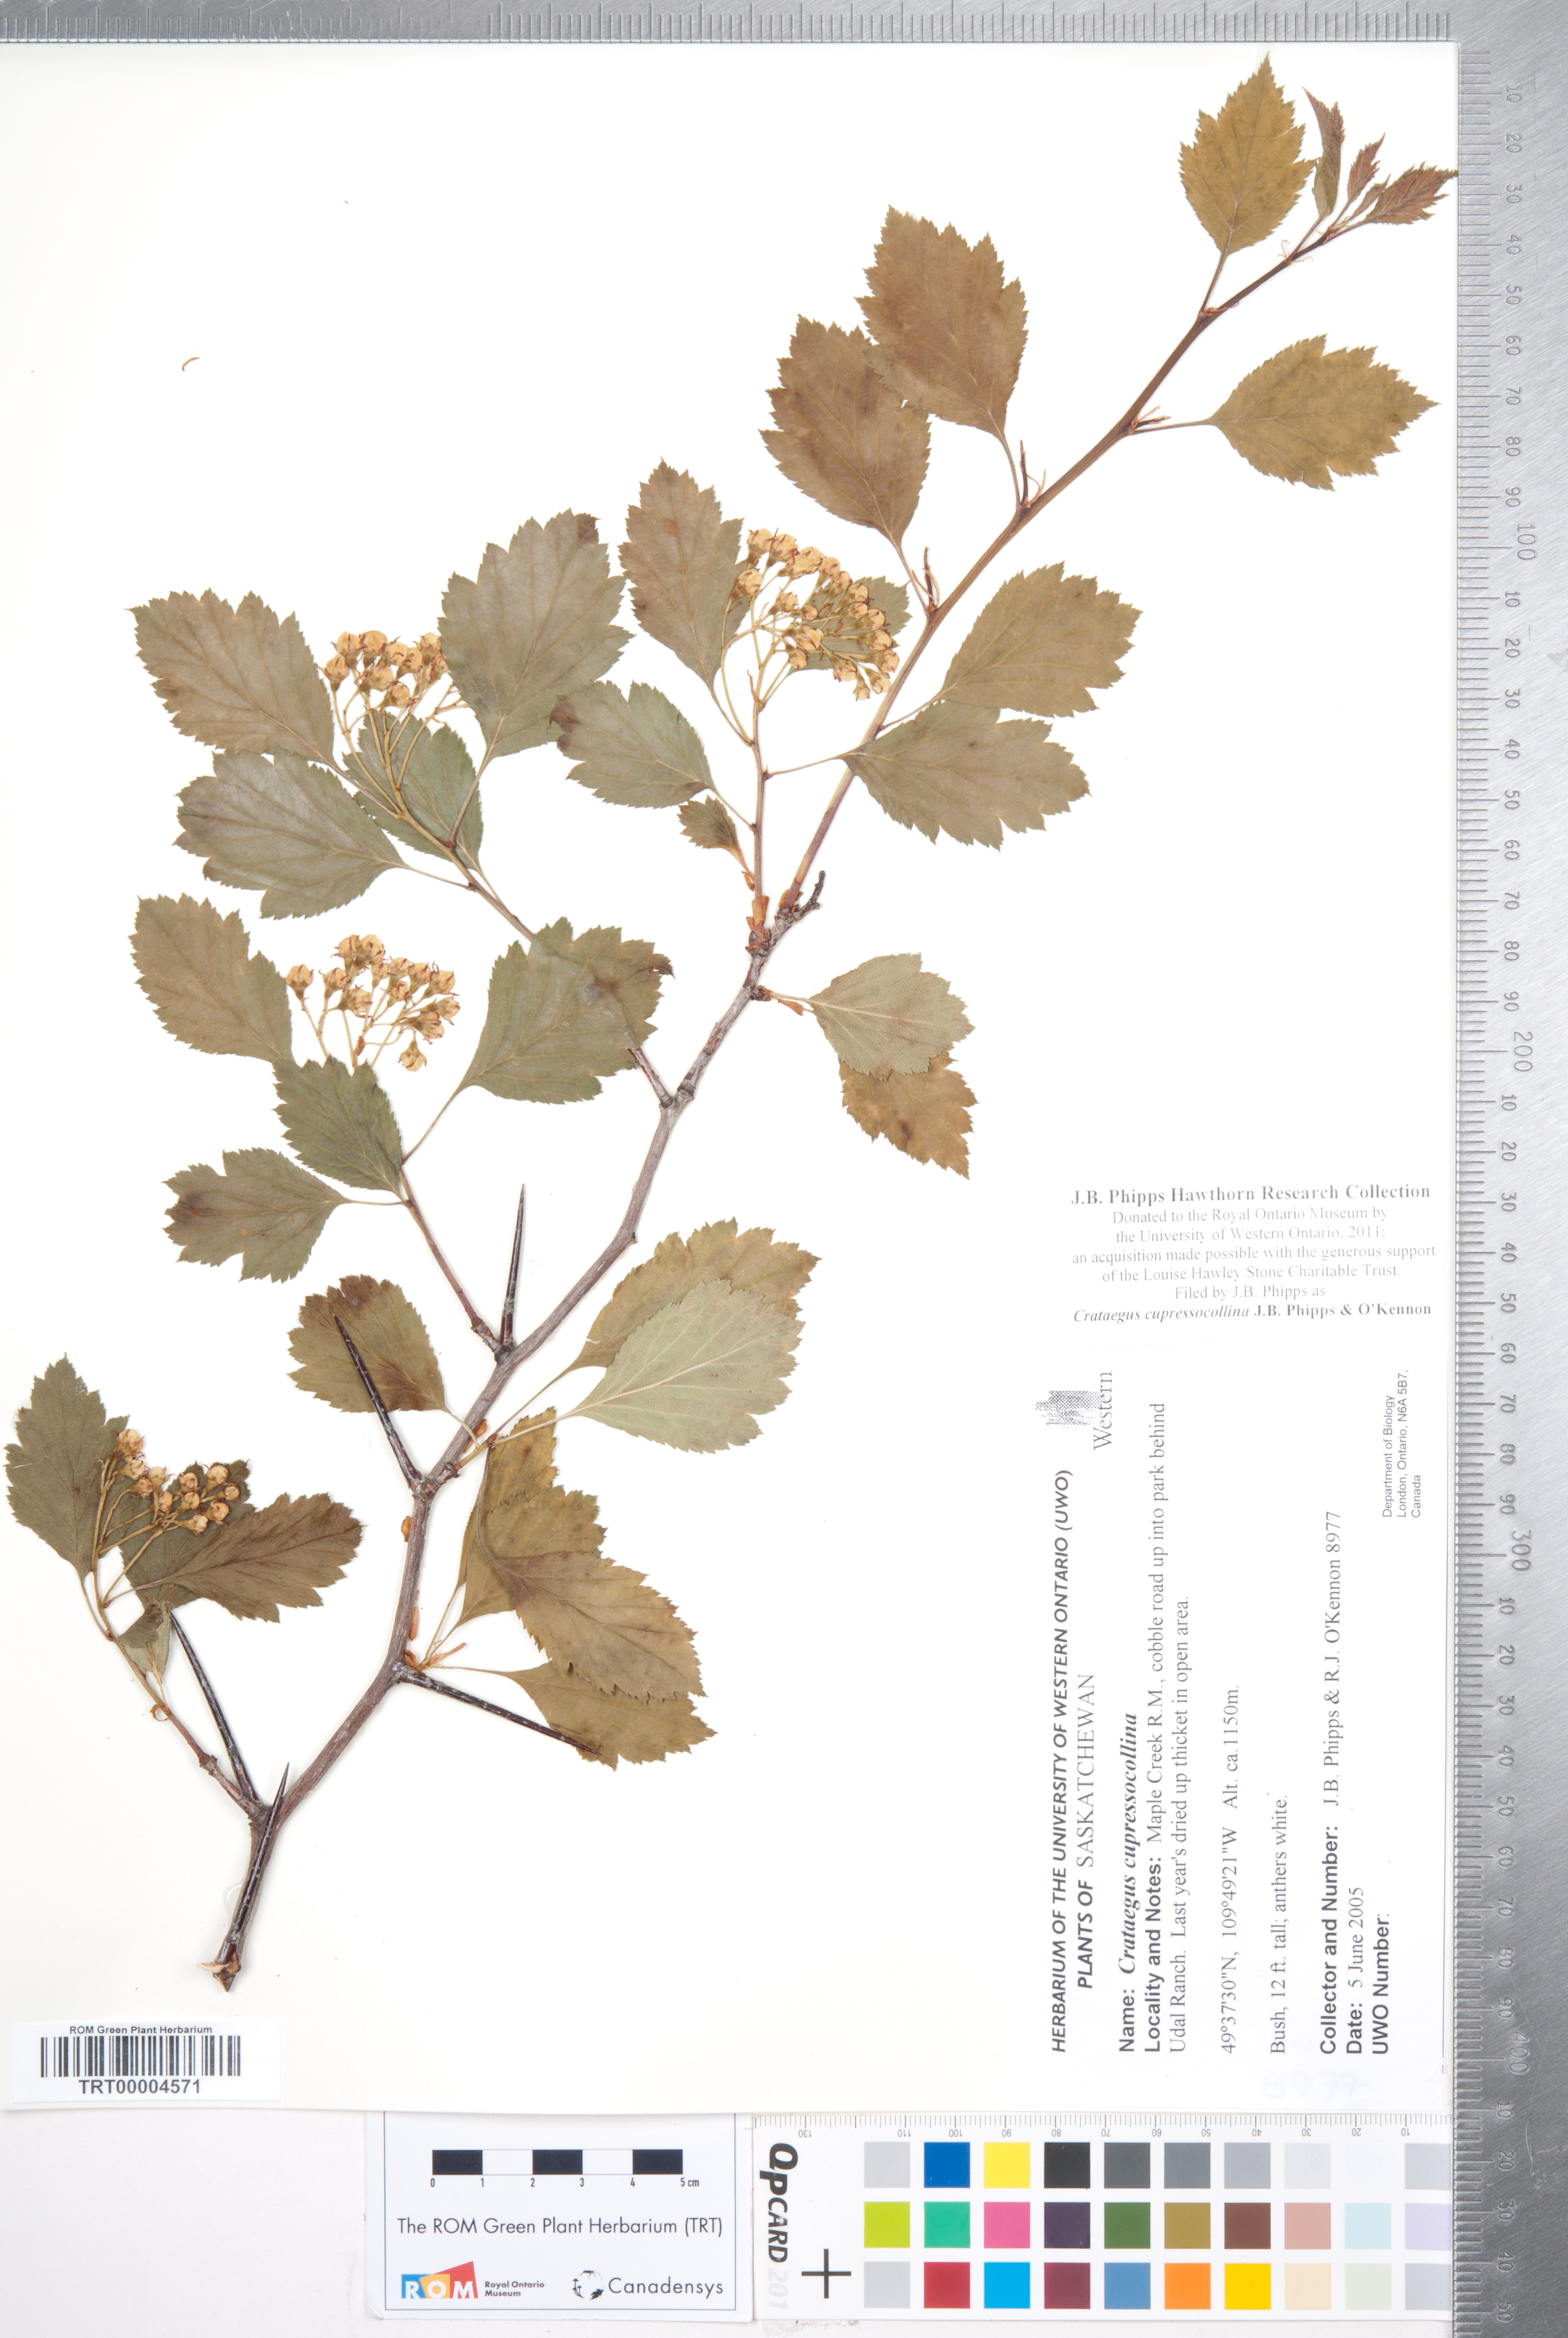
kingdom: Plantae
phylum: Tracheophyta
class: Magnoliopsida
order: Rosales
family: Rosaceae
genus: Crataegus
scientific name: Crataegus cupressocollina
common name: Cypress hills hawthorn
